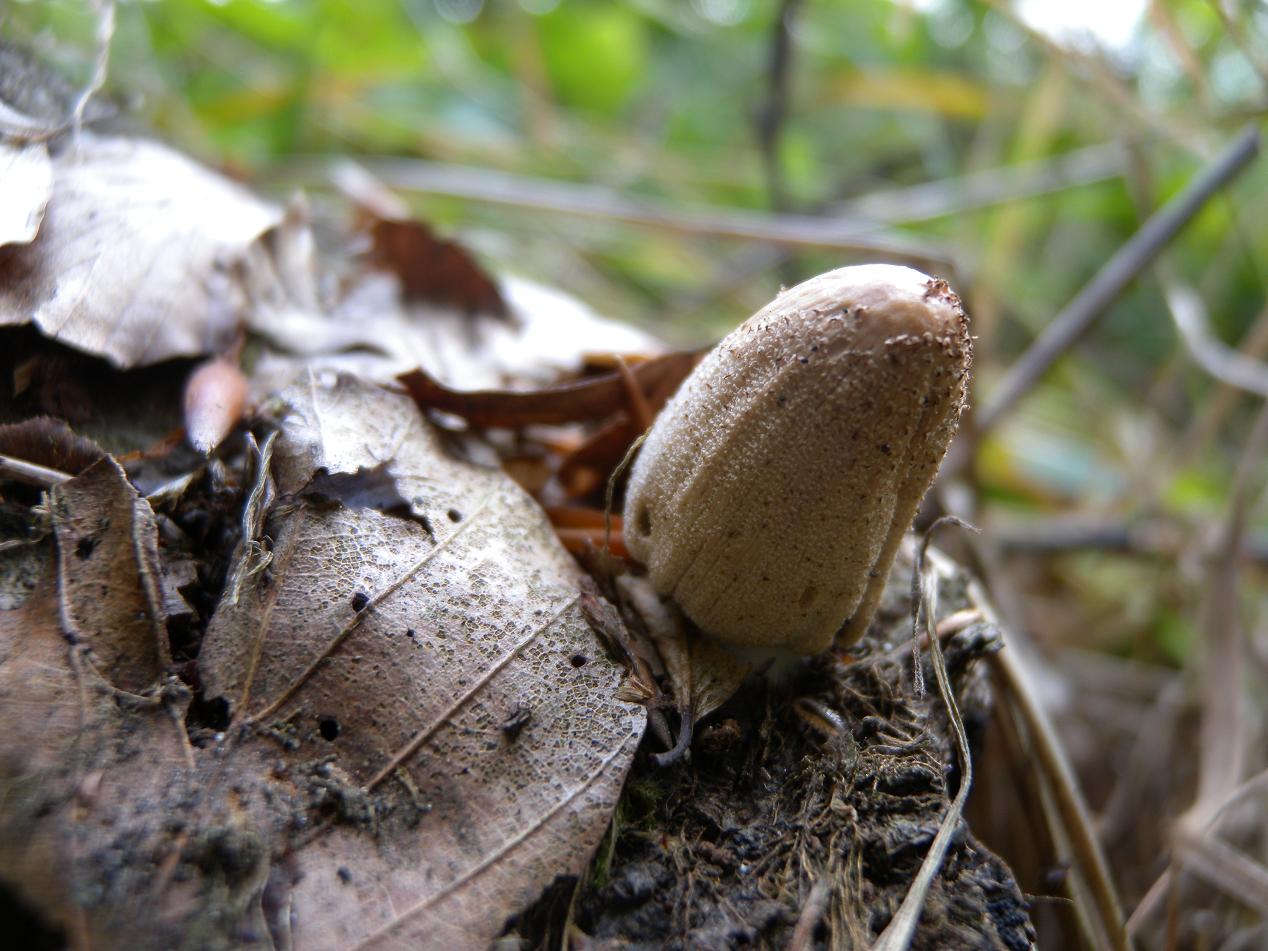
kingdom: Fungi
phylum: Basidiomycota
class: Agaricomycetes
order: Agaricales
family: Psathyrellaceae
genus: Coprinellus
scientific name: Coprinellus radians
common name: grynet blækhat
